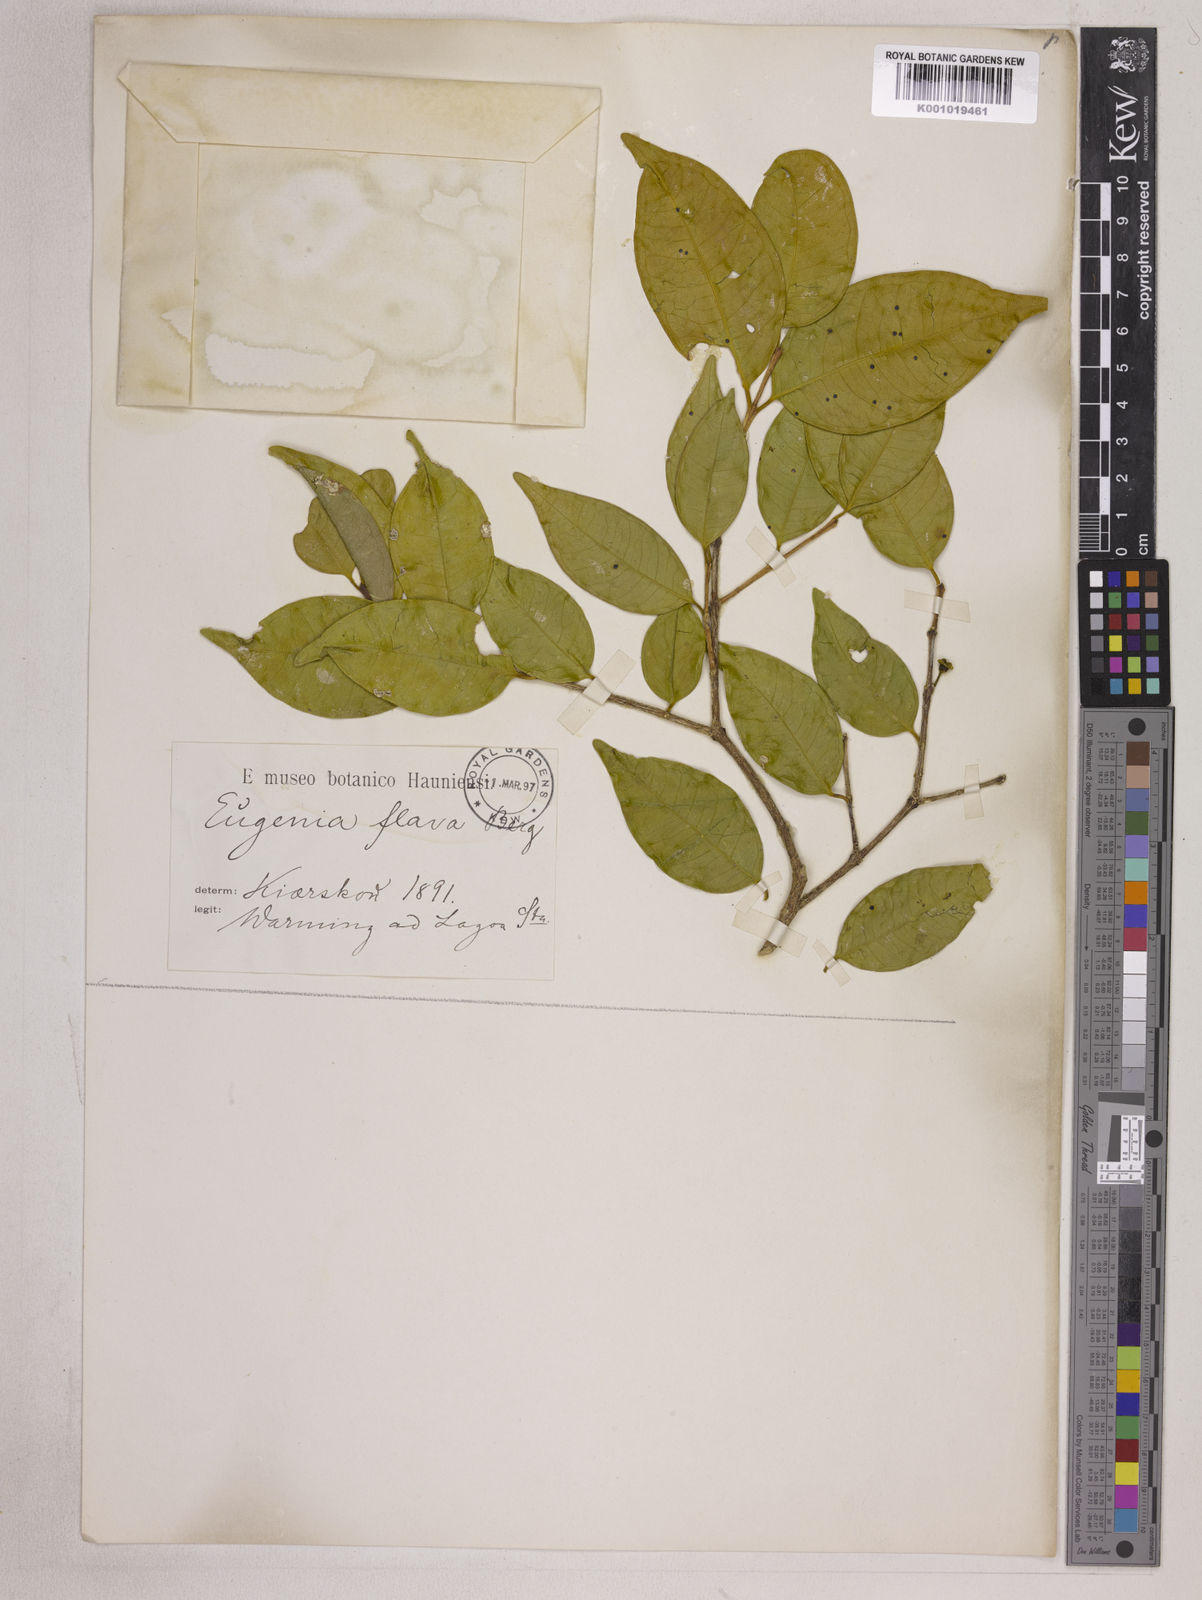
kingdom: Plantae
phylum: Tracheophyta
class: Magnoliopsida
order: Myrtales
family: Myrtaceae
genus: Eugenia
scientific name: Eugenia punicifolia
